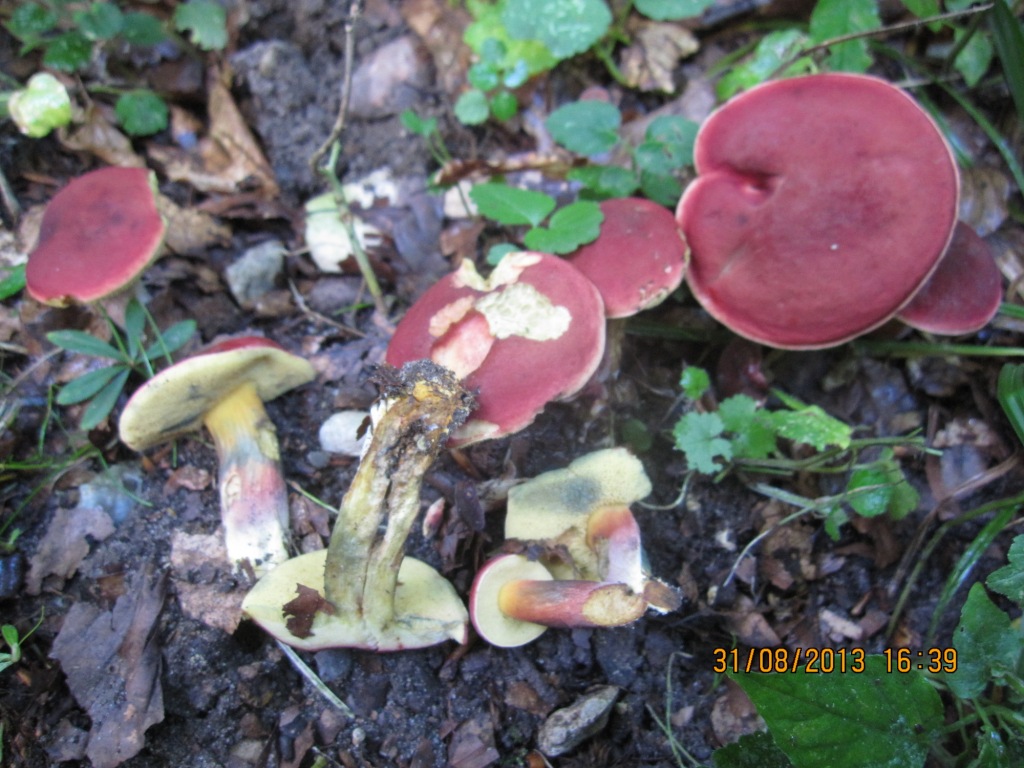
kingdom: Fungi
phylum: Basidiomycota
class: Agaricomycetes
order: Boletales
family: Boletaceae
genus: Hortiboletus
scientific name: Hortiboletus rubellus
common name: blodrød rørhat
